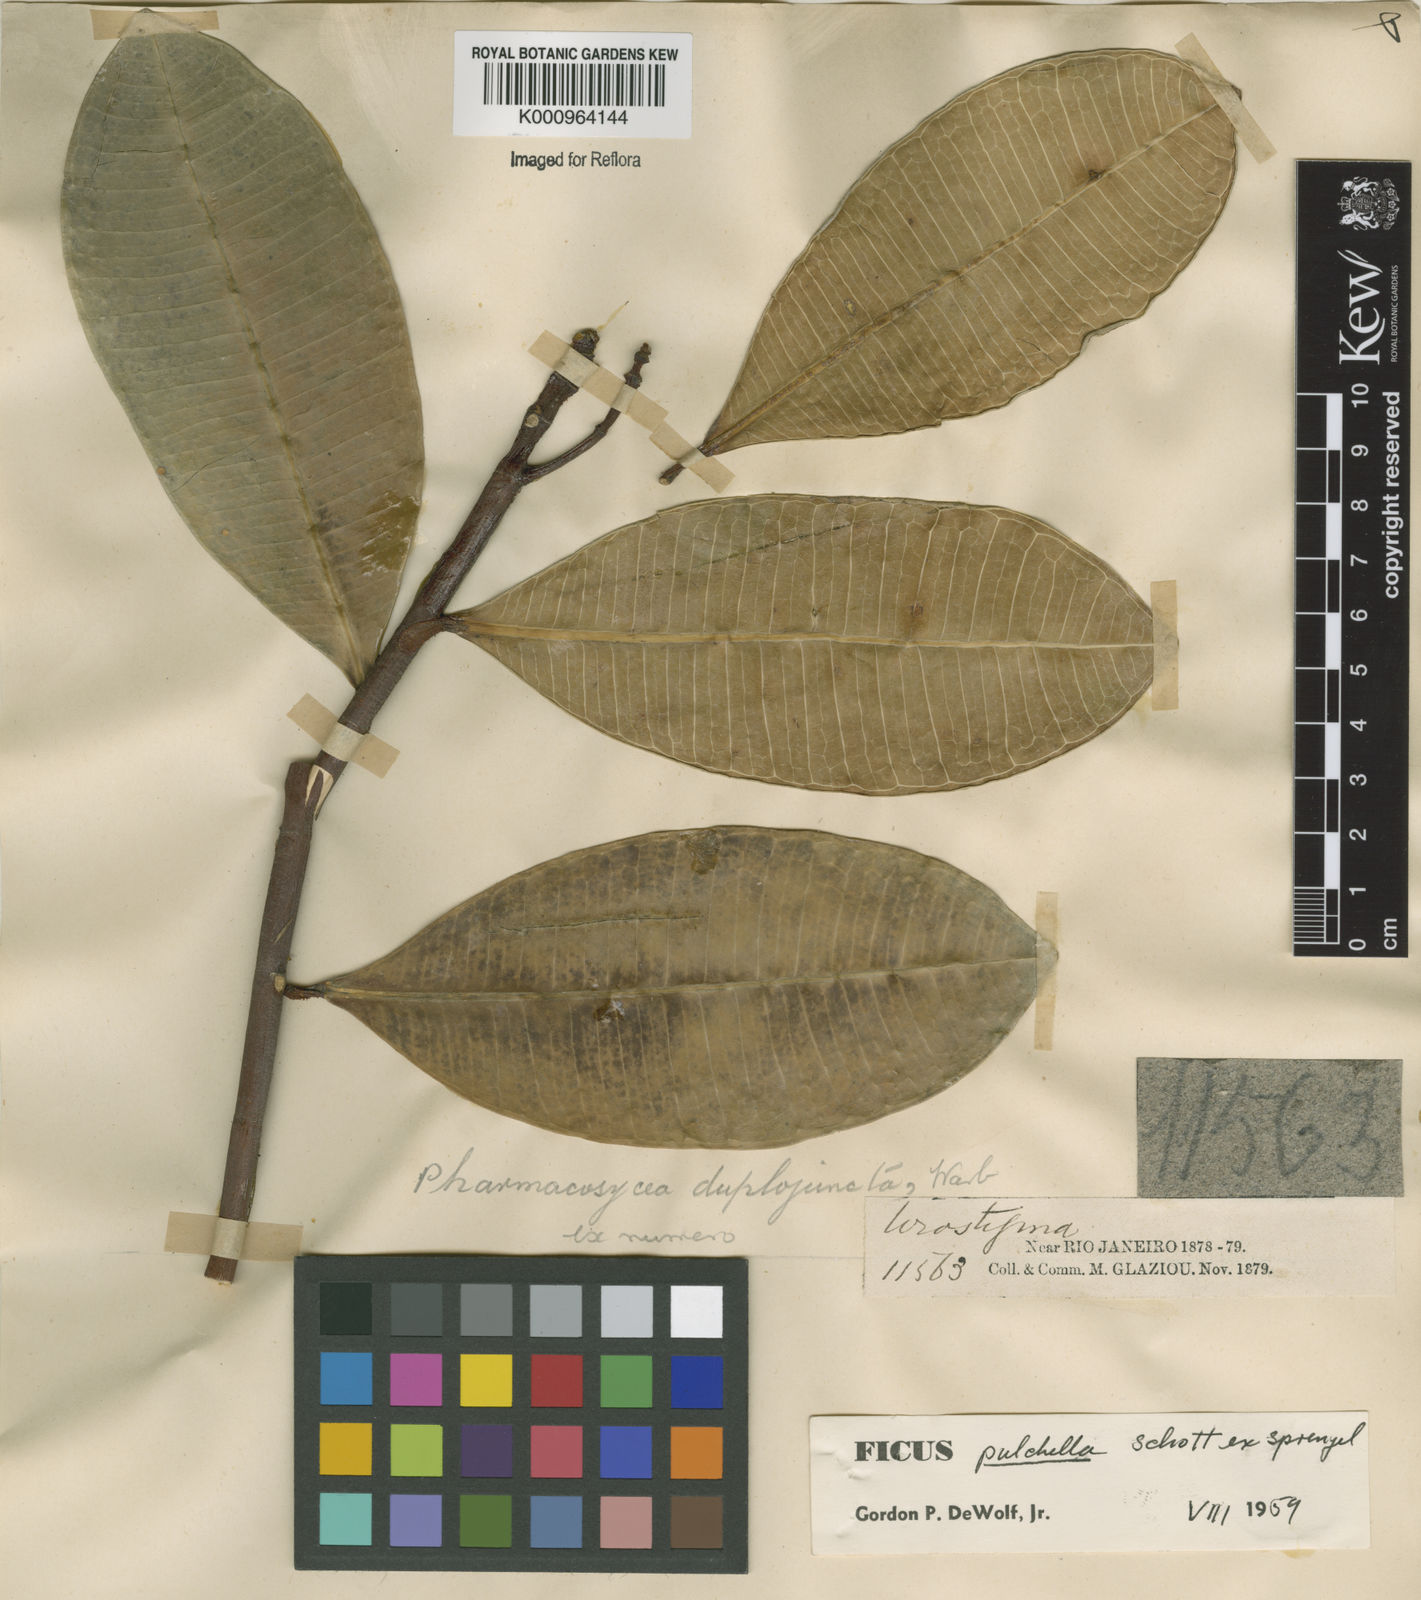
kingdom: Plantae
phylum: Tracheophyta
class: Magnoliopsida
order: Rosales
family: Moraceae
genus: Ficus
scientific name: Ficus pulchella
